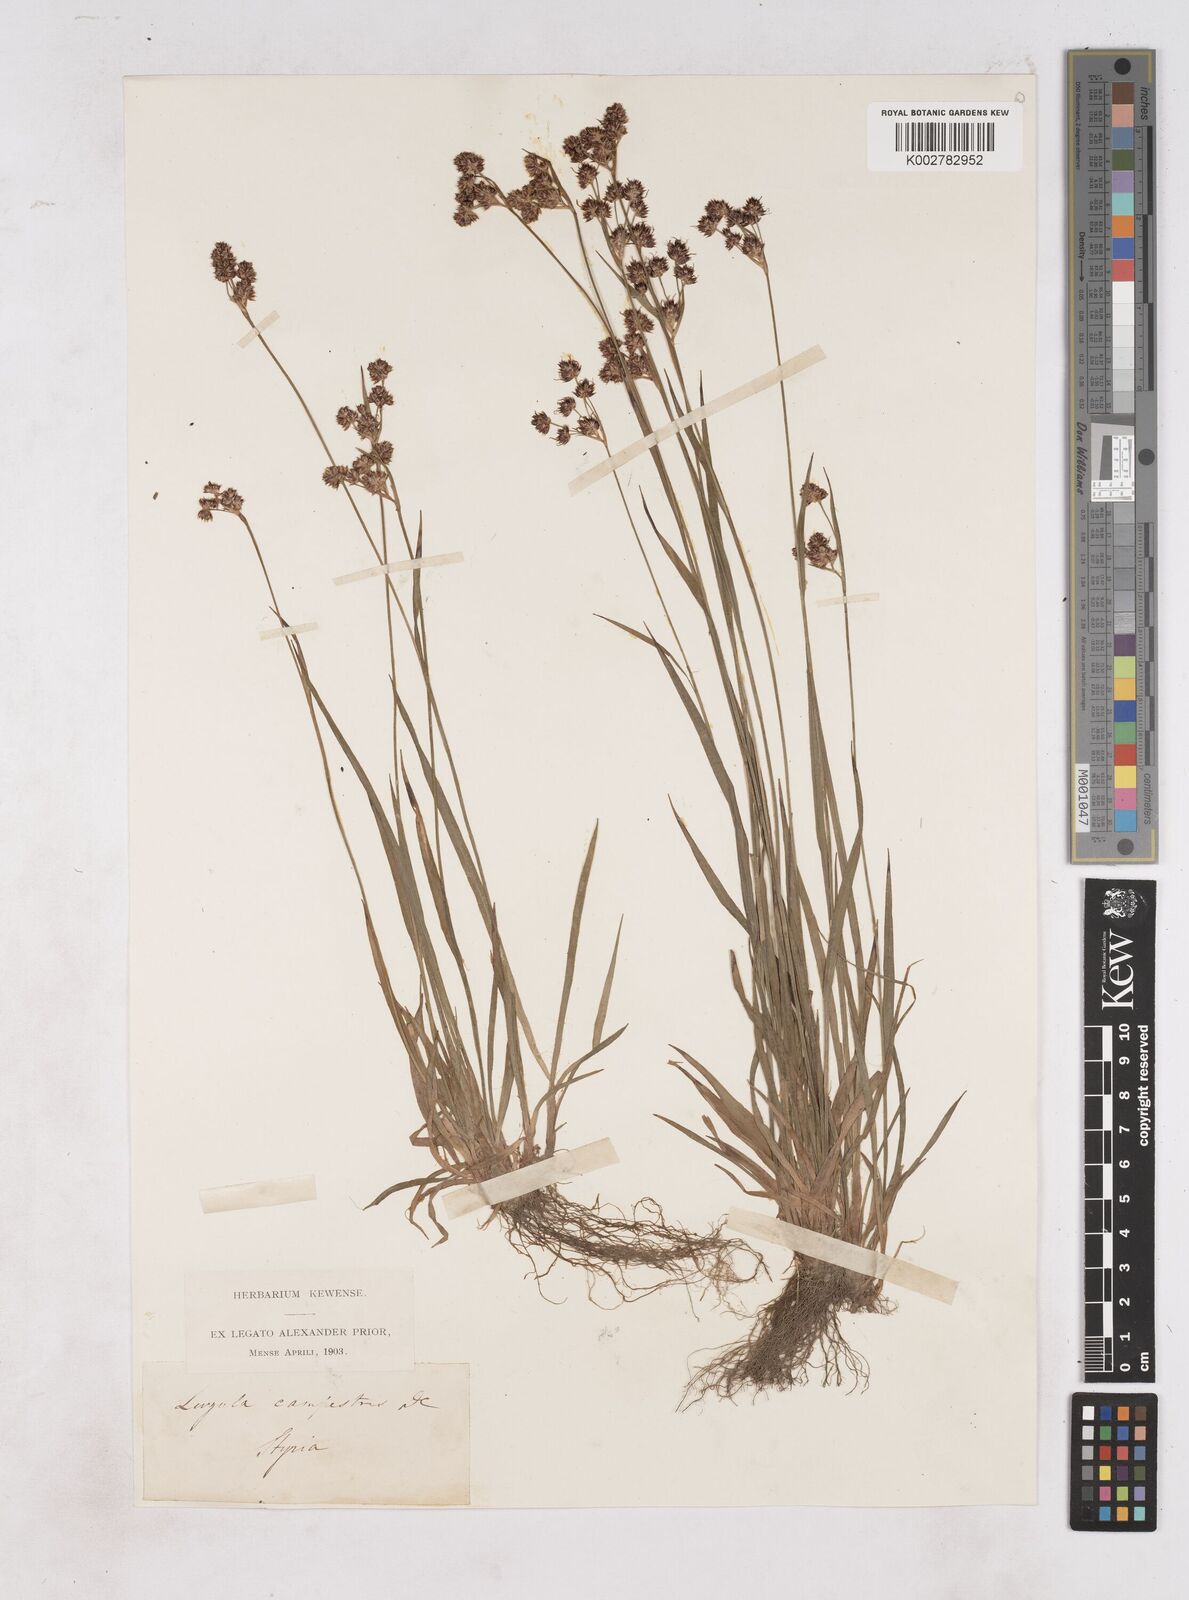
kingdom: Plantae
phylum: Tracheophyta
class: Liliopsida
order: Poales
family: Juncaceae
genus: Luzula
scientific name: Luzula campestris
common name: Field wood-rush
